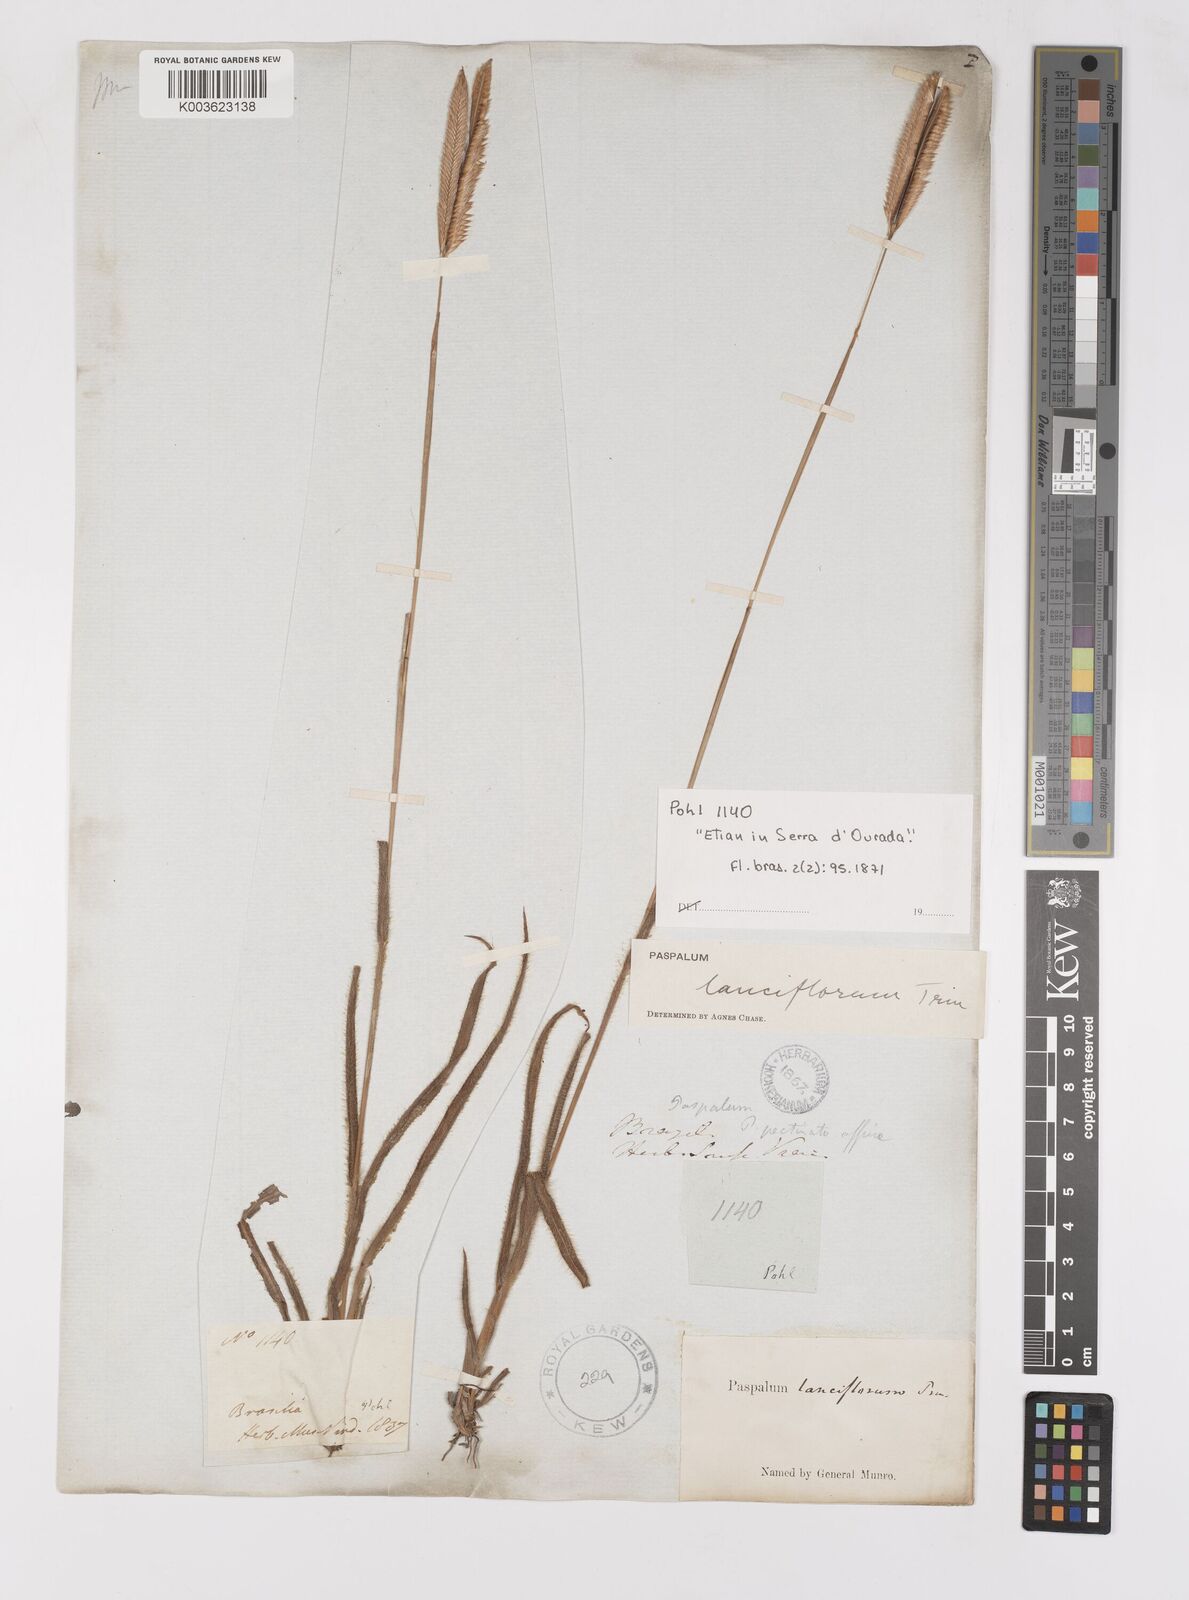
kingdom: Plantae
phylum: Tracheophyta
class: Liliopsida
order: Poales
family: Poaceae
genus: Paspalum
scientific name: Paspalum lanciflorum
